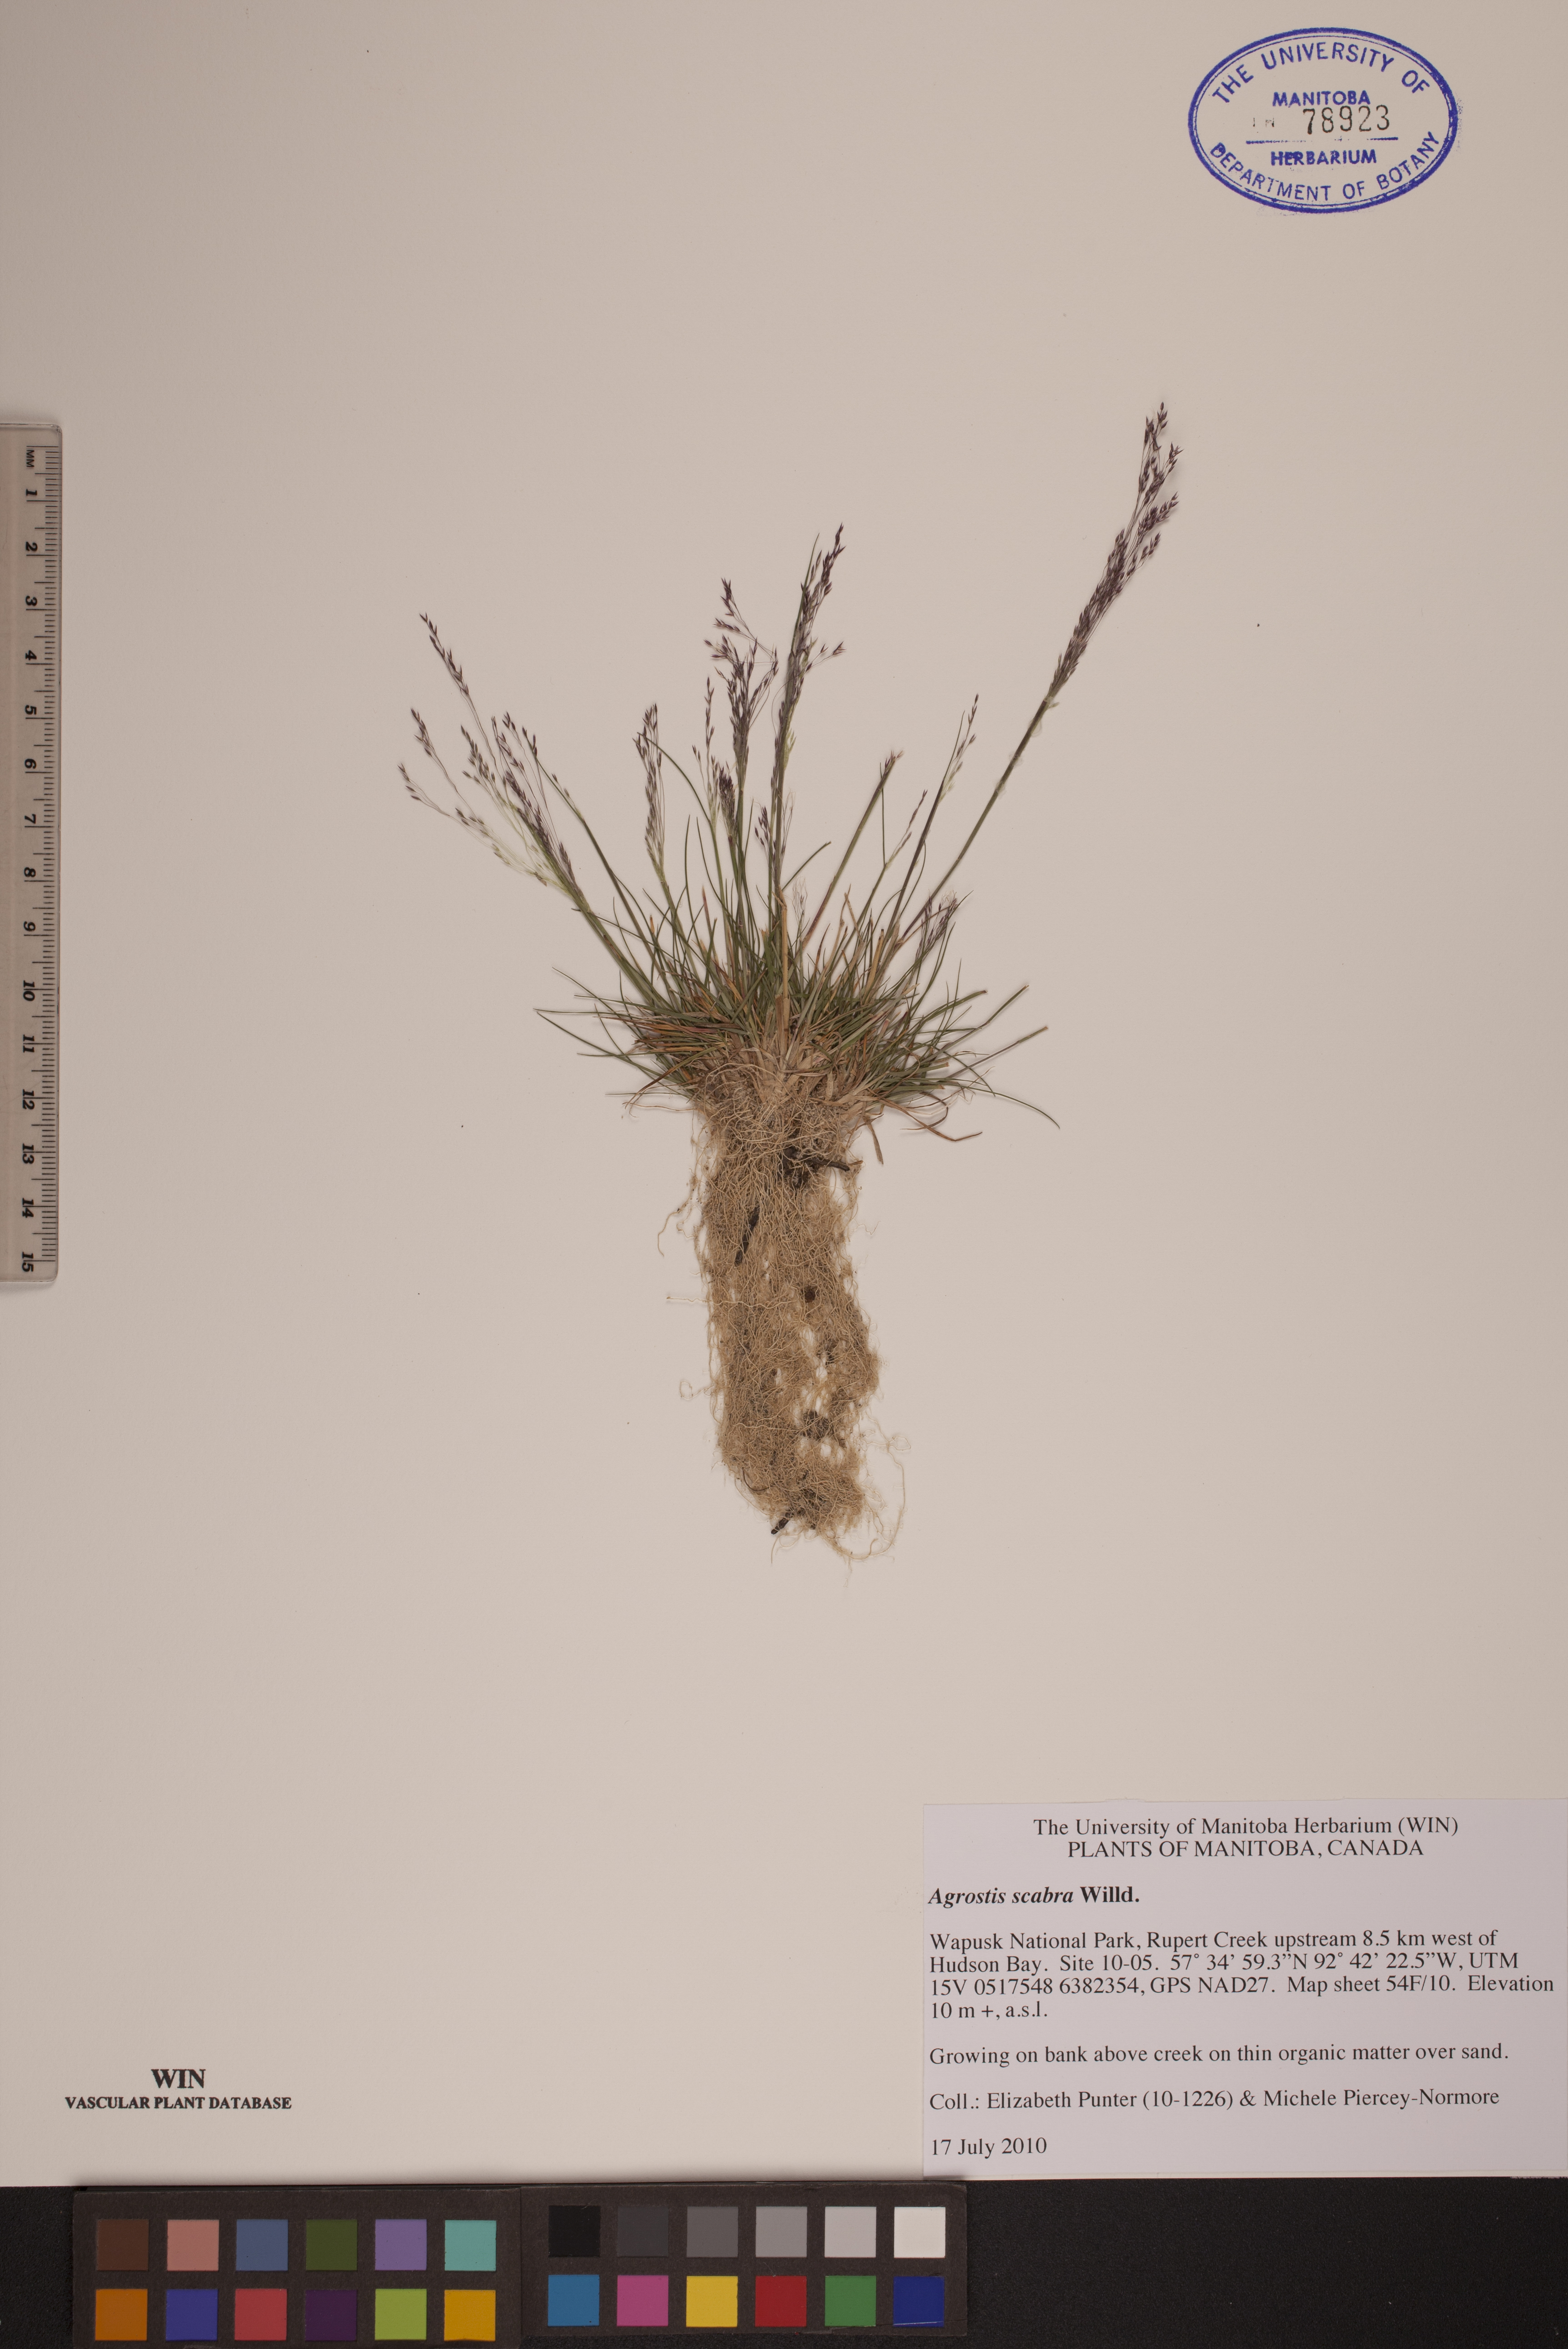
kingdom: Plantae
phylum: Tracheophyta
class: Liliopsida
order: Poales
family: Poaceae
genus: Agrostis
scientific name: Agrostis scabra
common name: Rough bent
